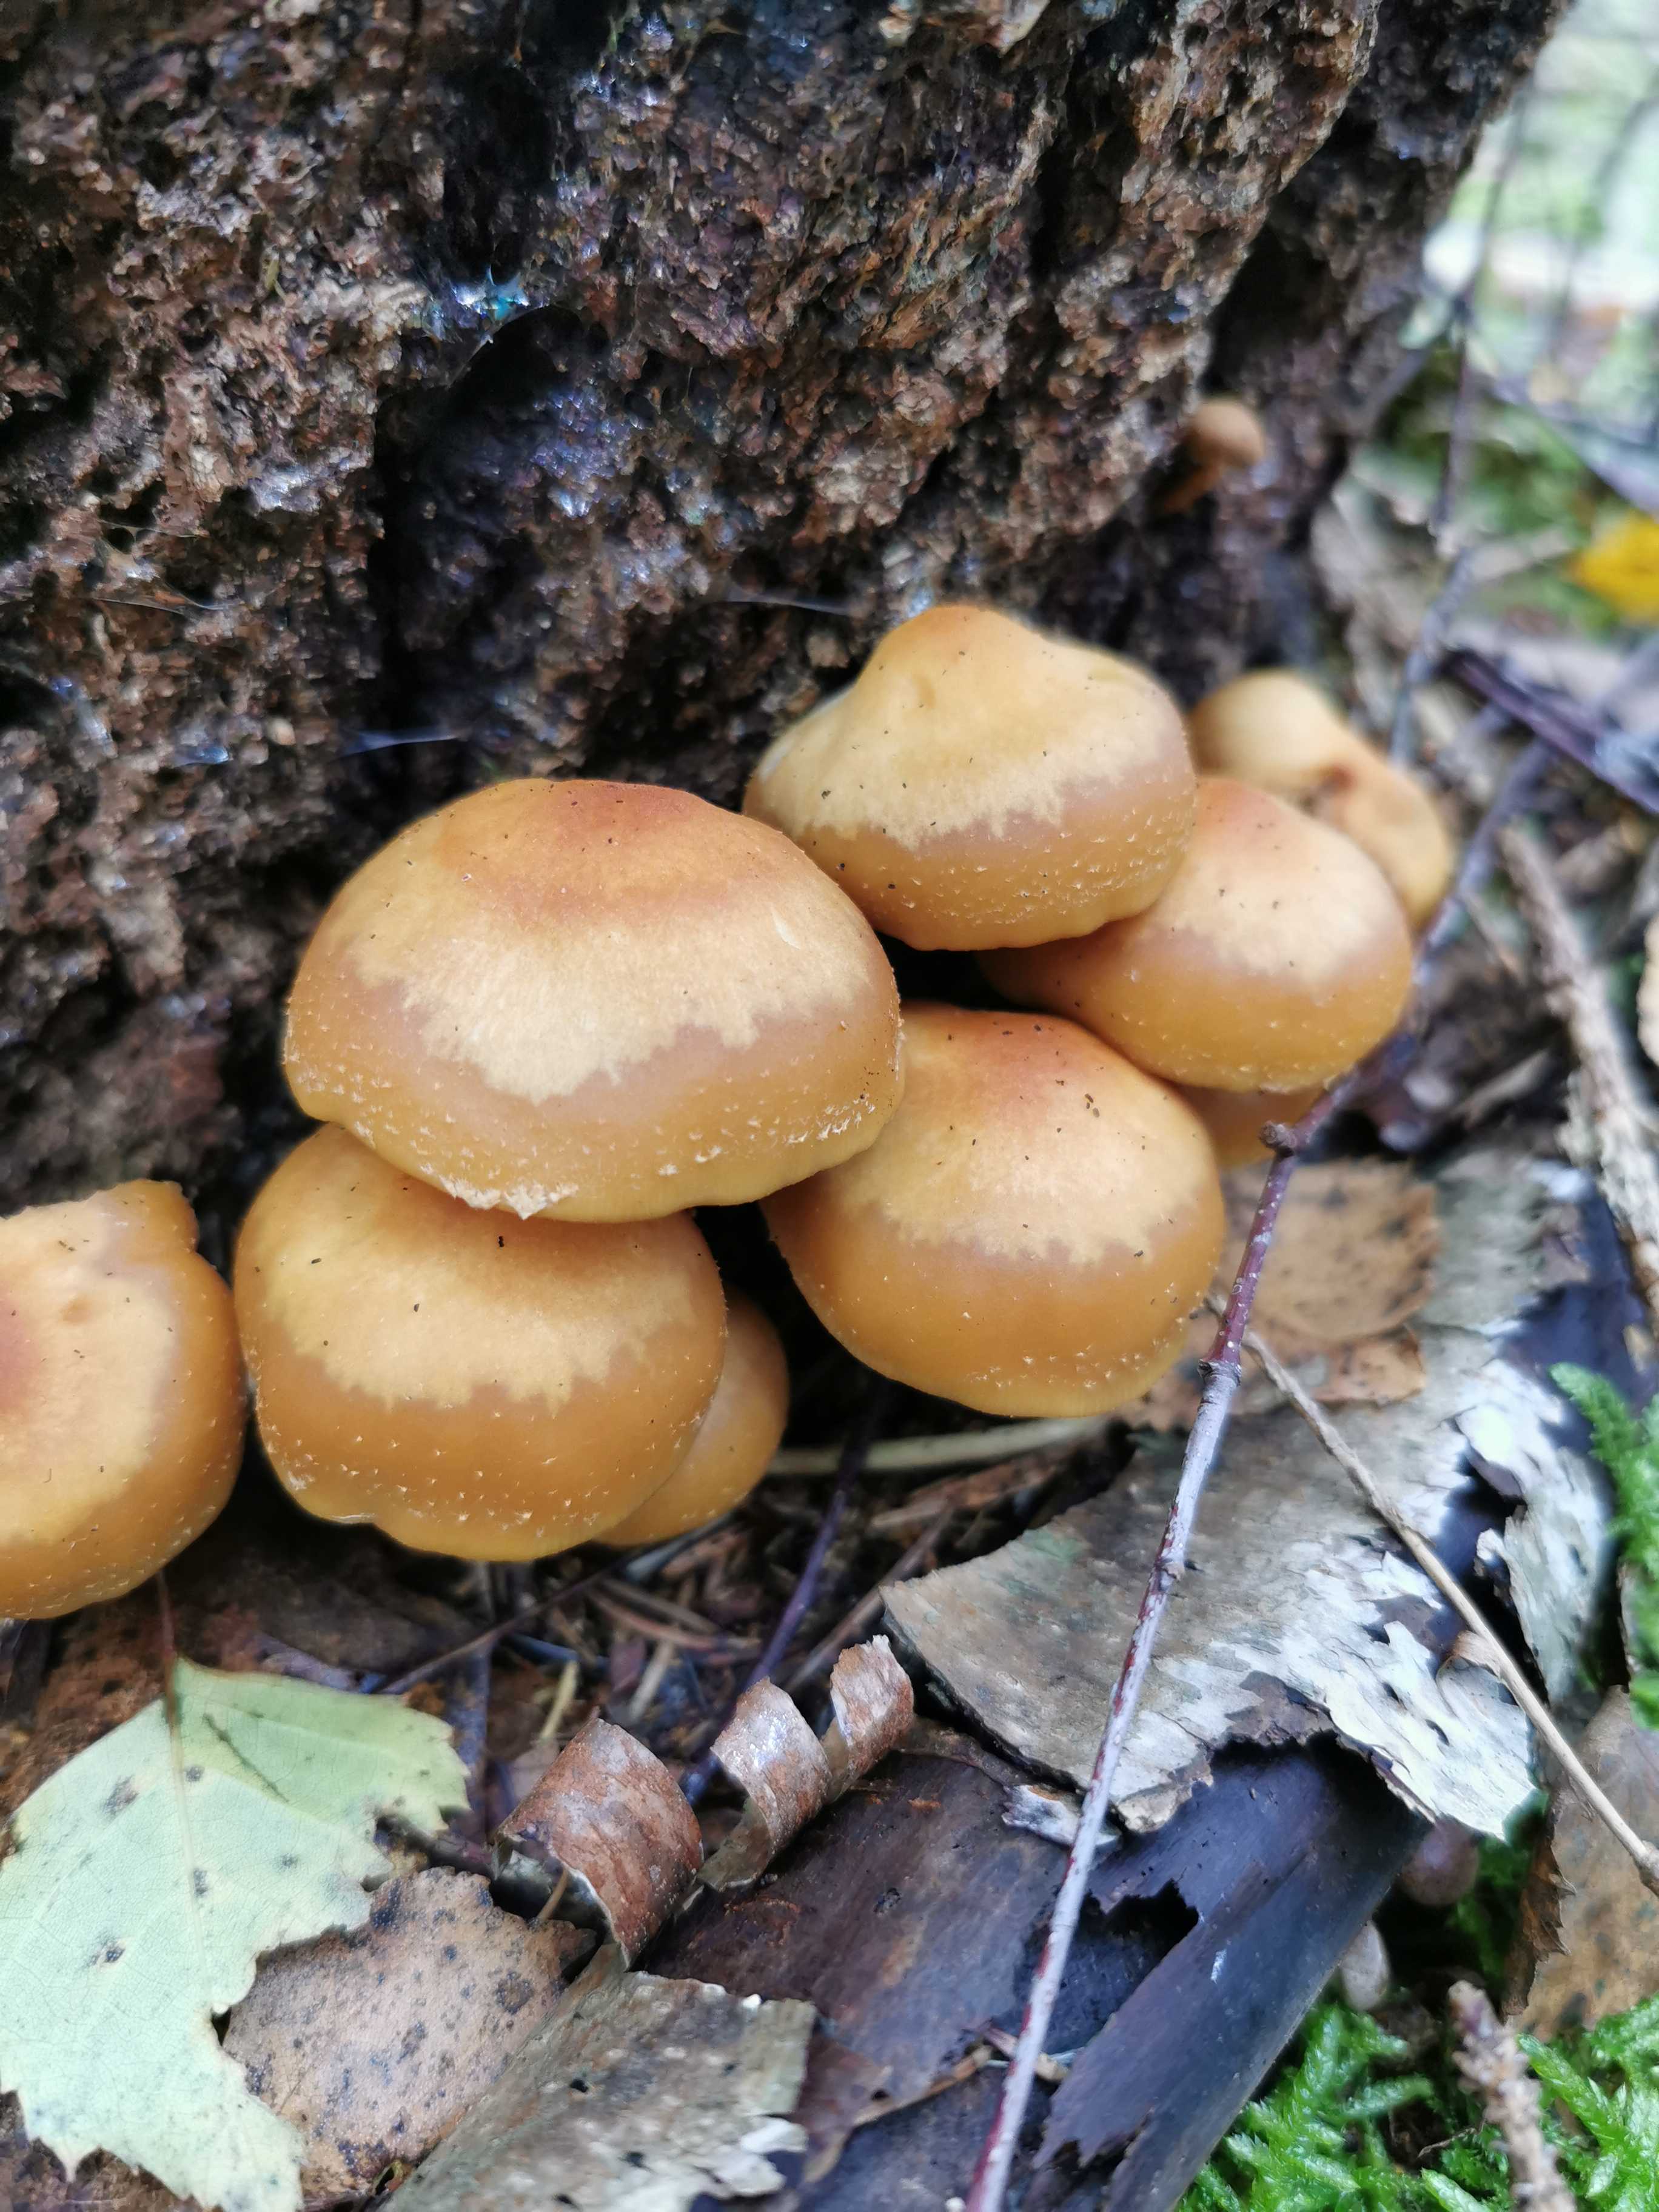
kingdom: Fungi
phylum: Basidiomycota
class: Agaricomycetes
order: Agaricales
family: Strophariaceae
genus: Kuehneromyces
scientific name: Kuehneromyces mutabilis
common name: foranderlig skælhat
